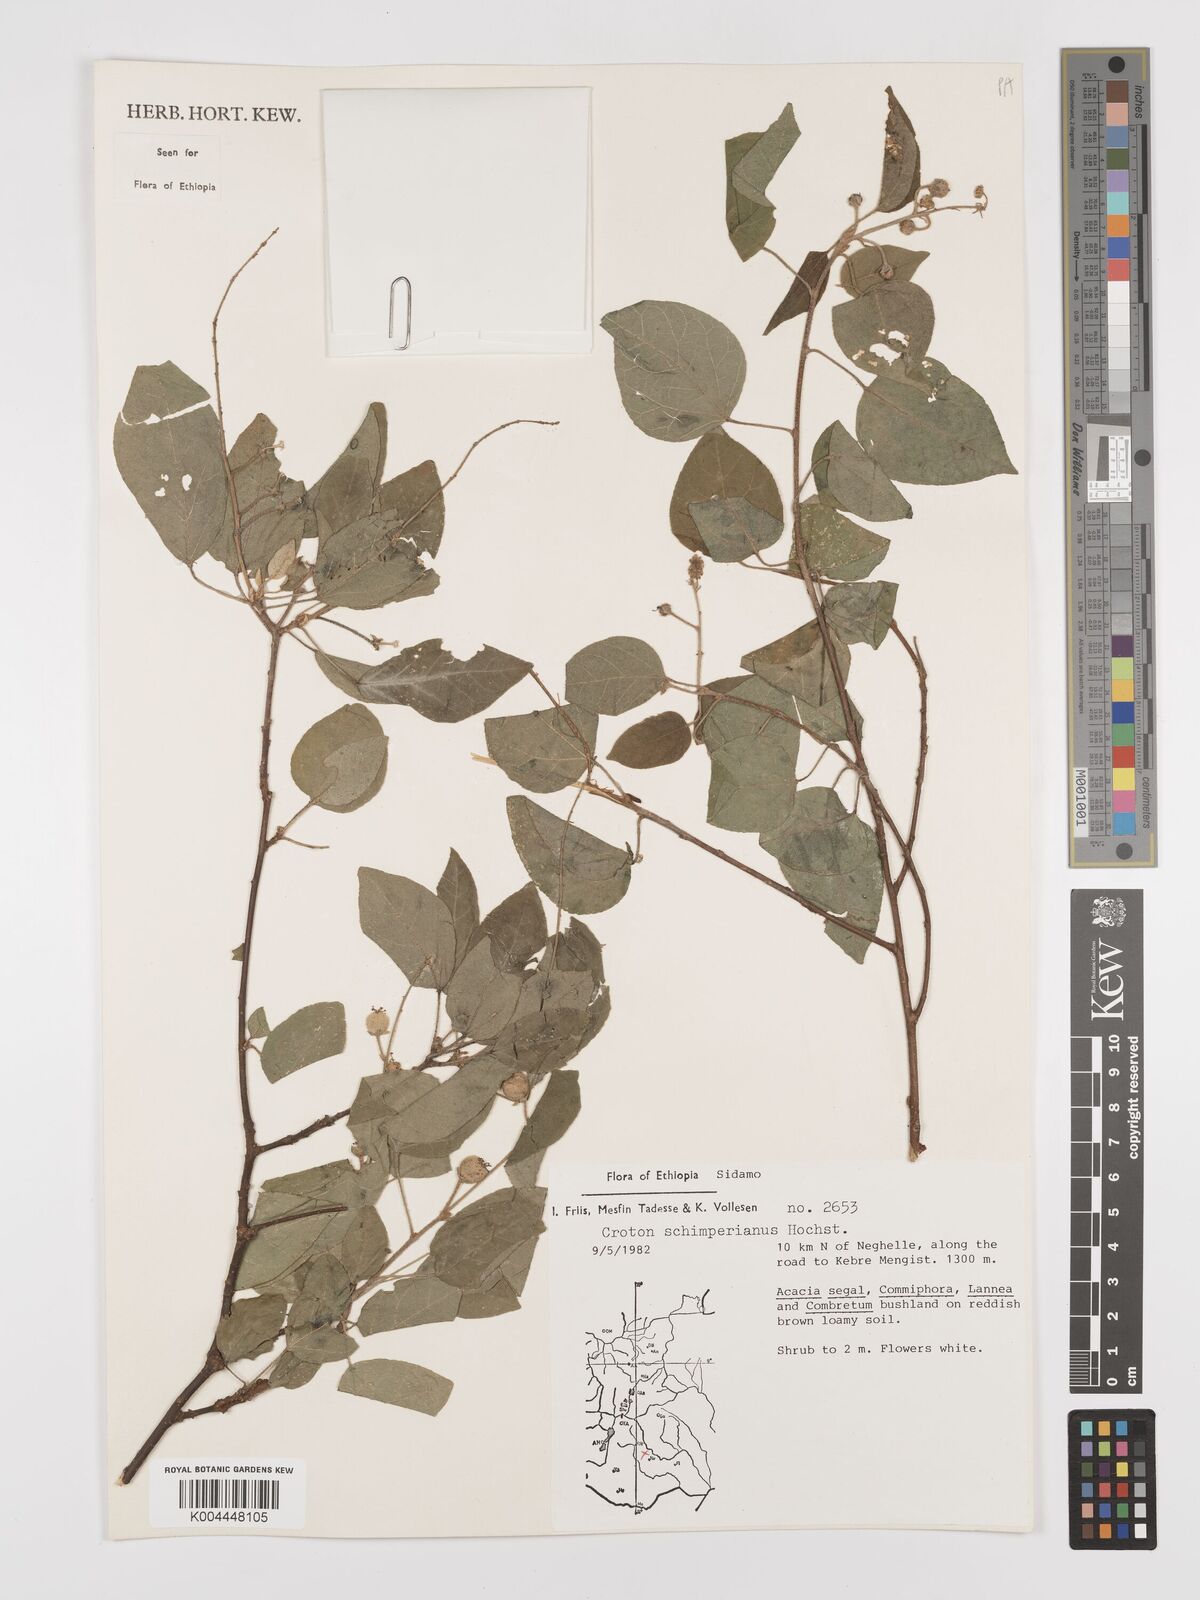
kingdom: Plantae
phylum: Tracheophyta
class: Magnoliopsida
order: Malpighiales
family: Euphorbiaceae
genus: Croton
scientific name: Croton schimperianus
